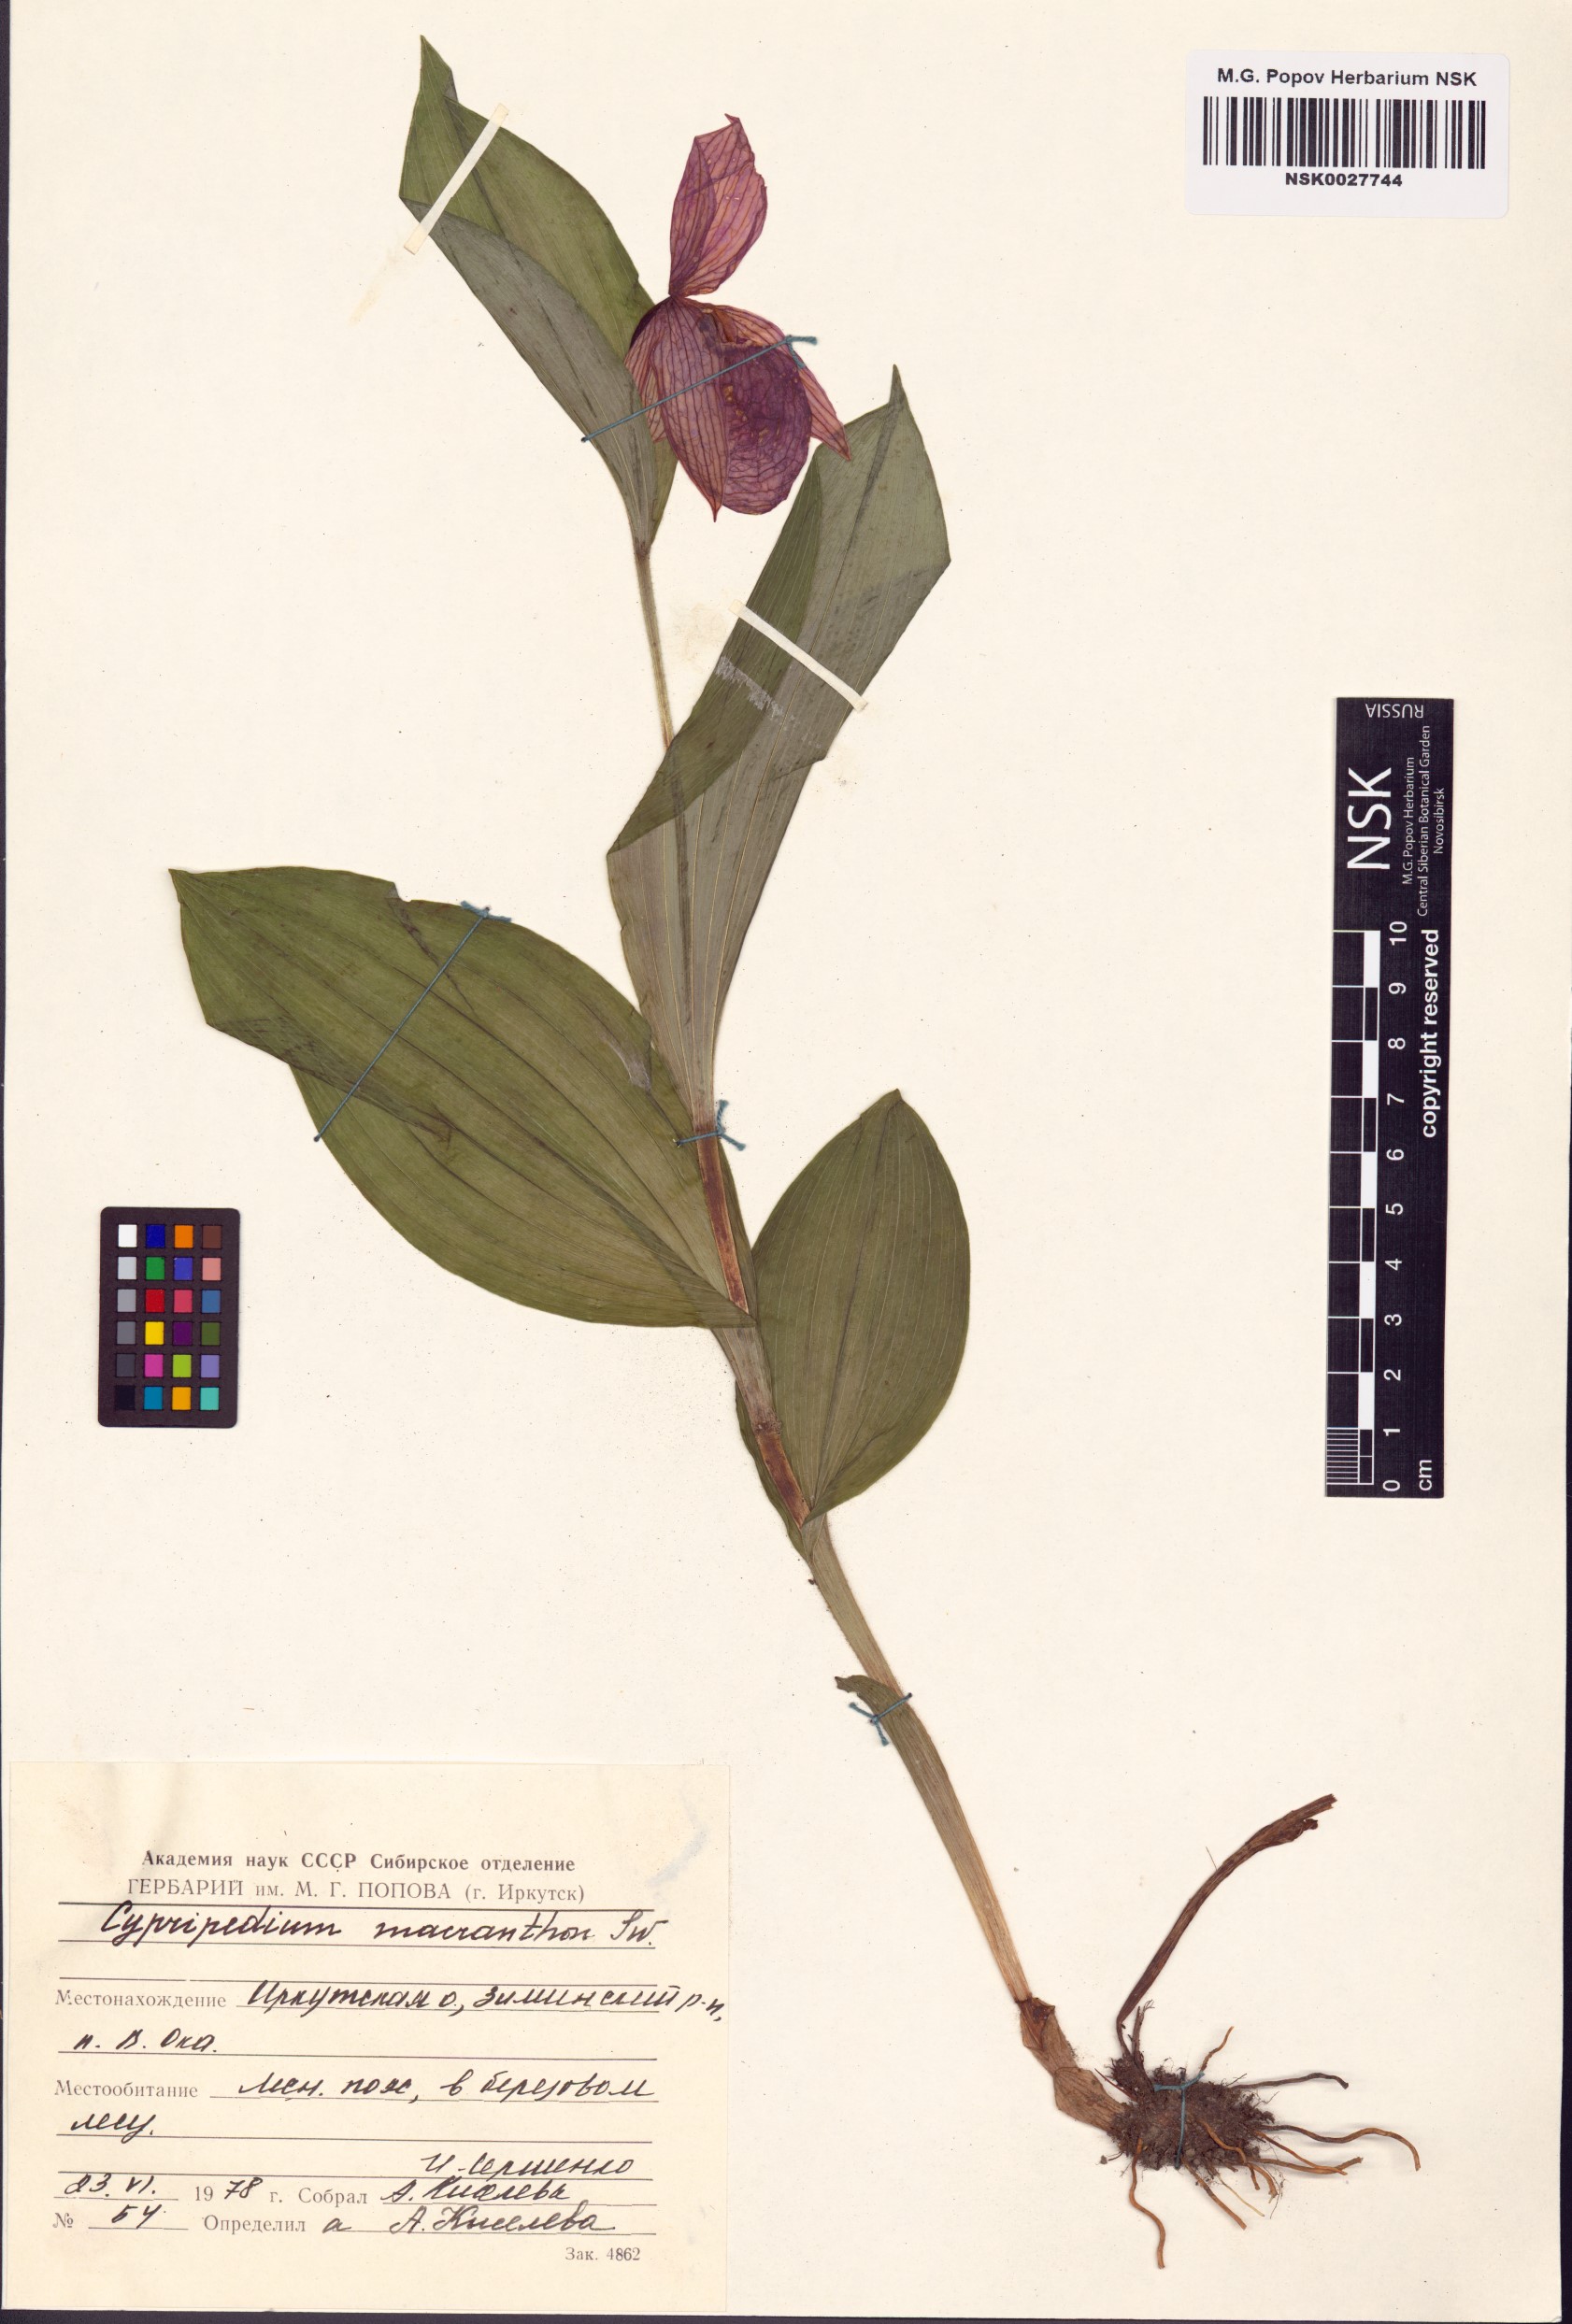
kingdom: Plantae
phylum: Tracheophyta
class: Liliopsida
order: Asparagales
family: Orchidaceae
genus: Cypripedium
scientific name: Cypripedium macranthos
